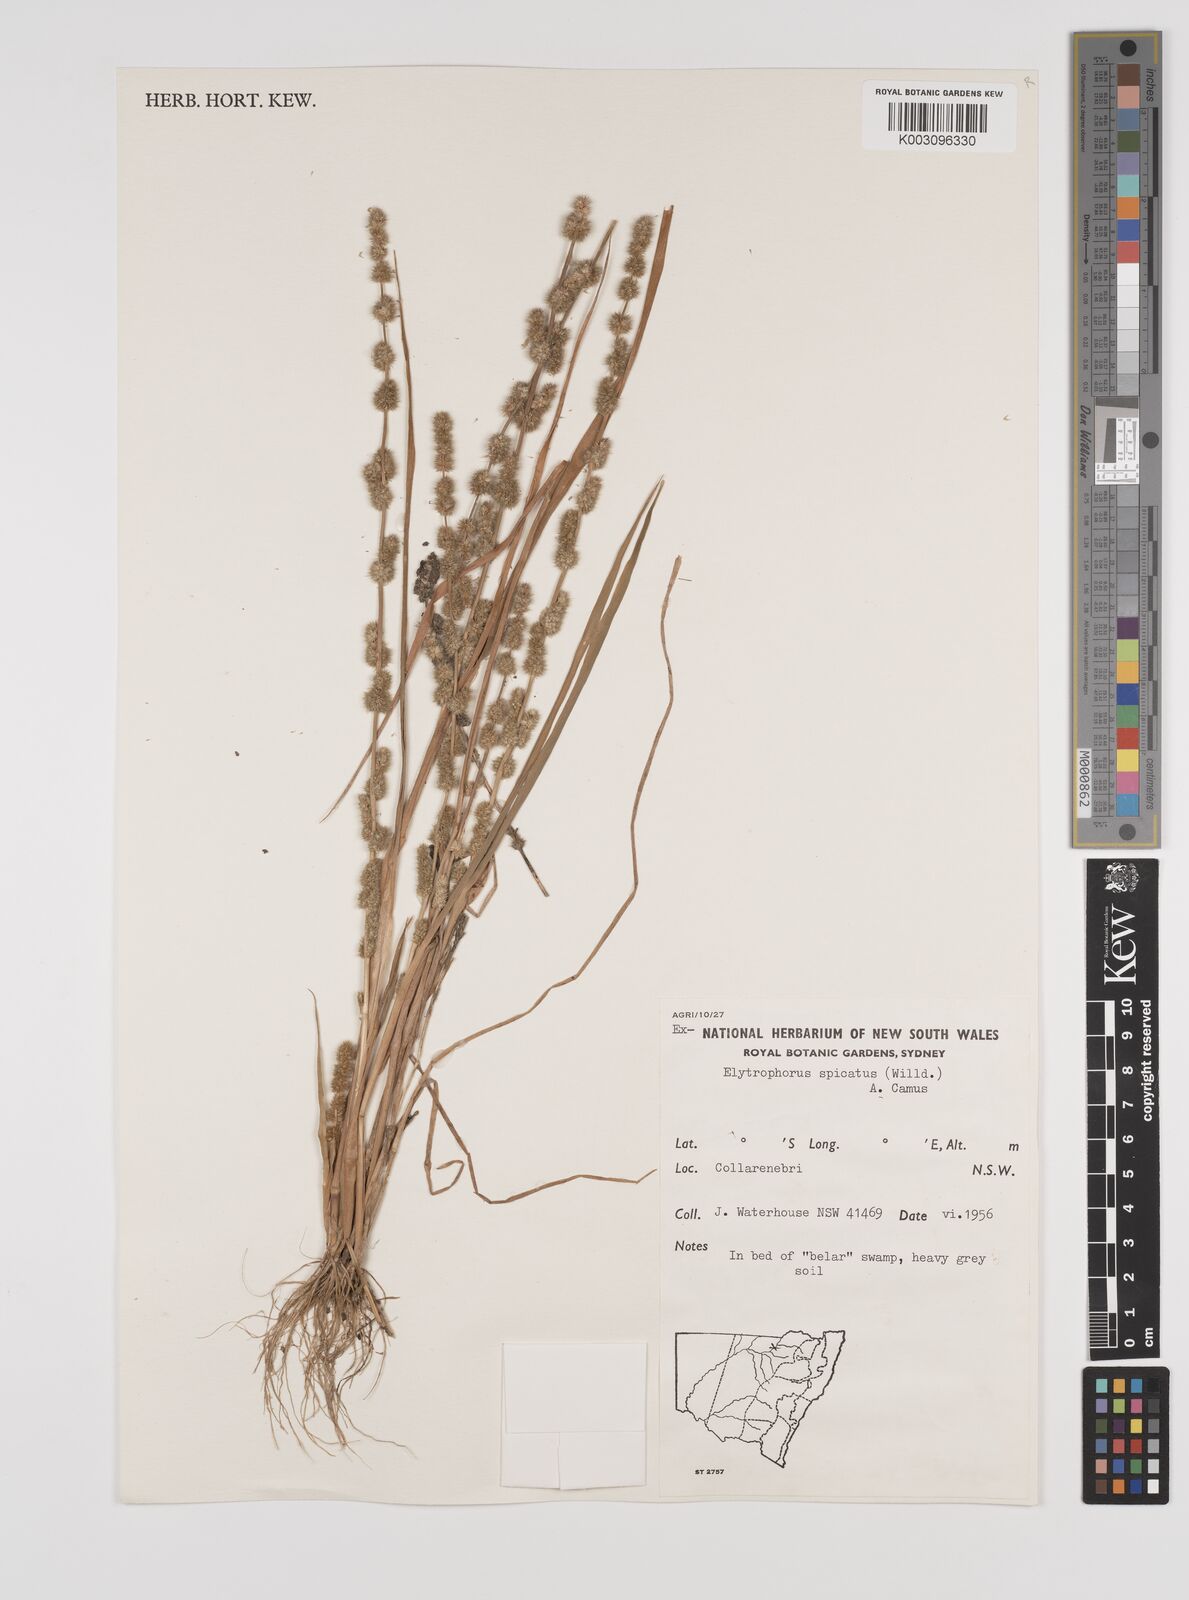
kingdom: Plantae
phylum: Tracheophyta
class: Liliopsida
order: Poales
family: Poaceae
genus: Elytrophorus
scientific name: Elytrophorus spicatus
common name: Spike grass
